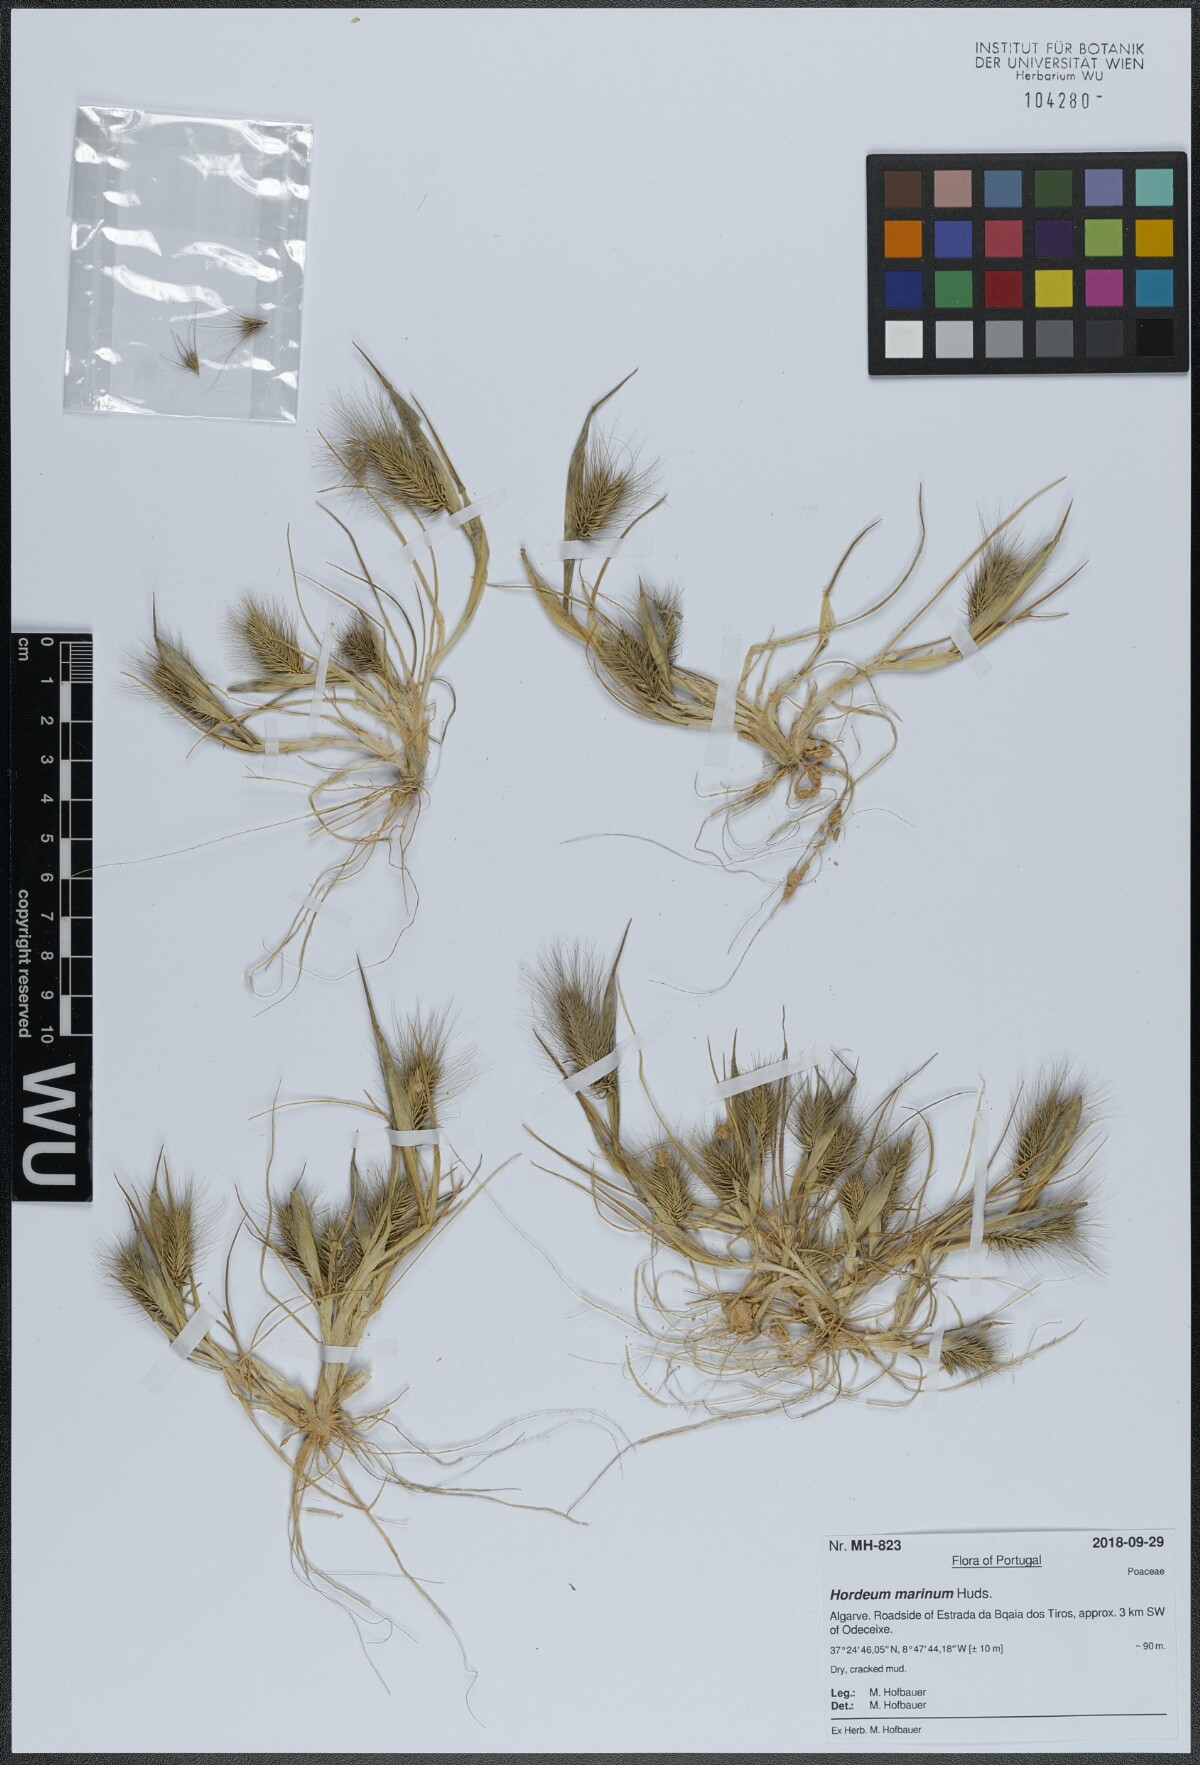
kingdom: Plantae
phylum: Tracheophyta
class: Liliopsida
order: Poales
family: Poaceae
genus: Hordeum
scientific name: Hordeum marinum
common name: Sea barley
